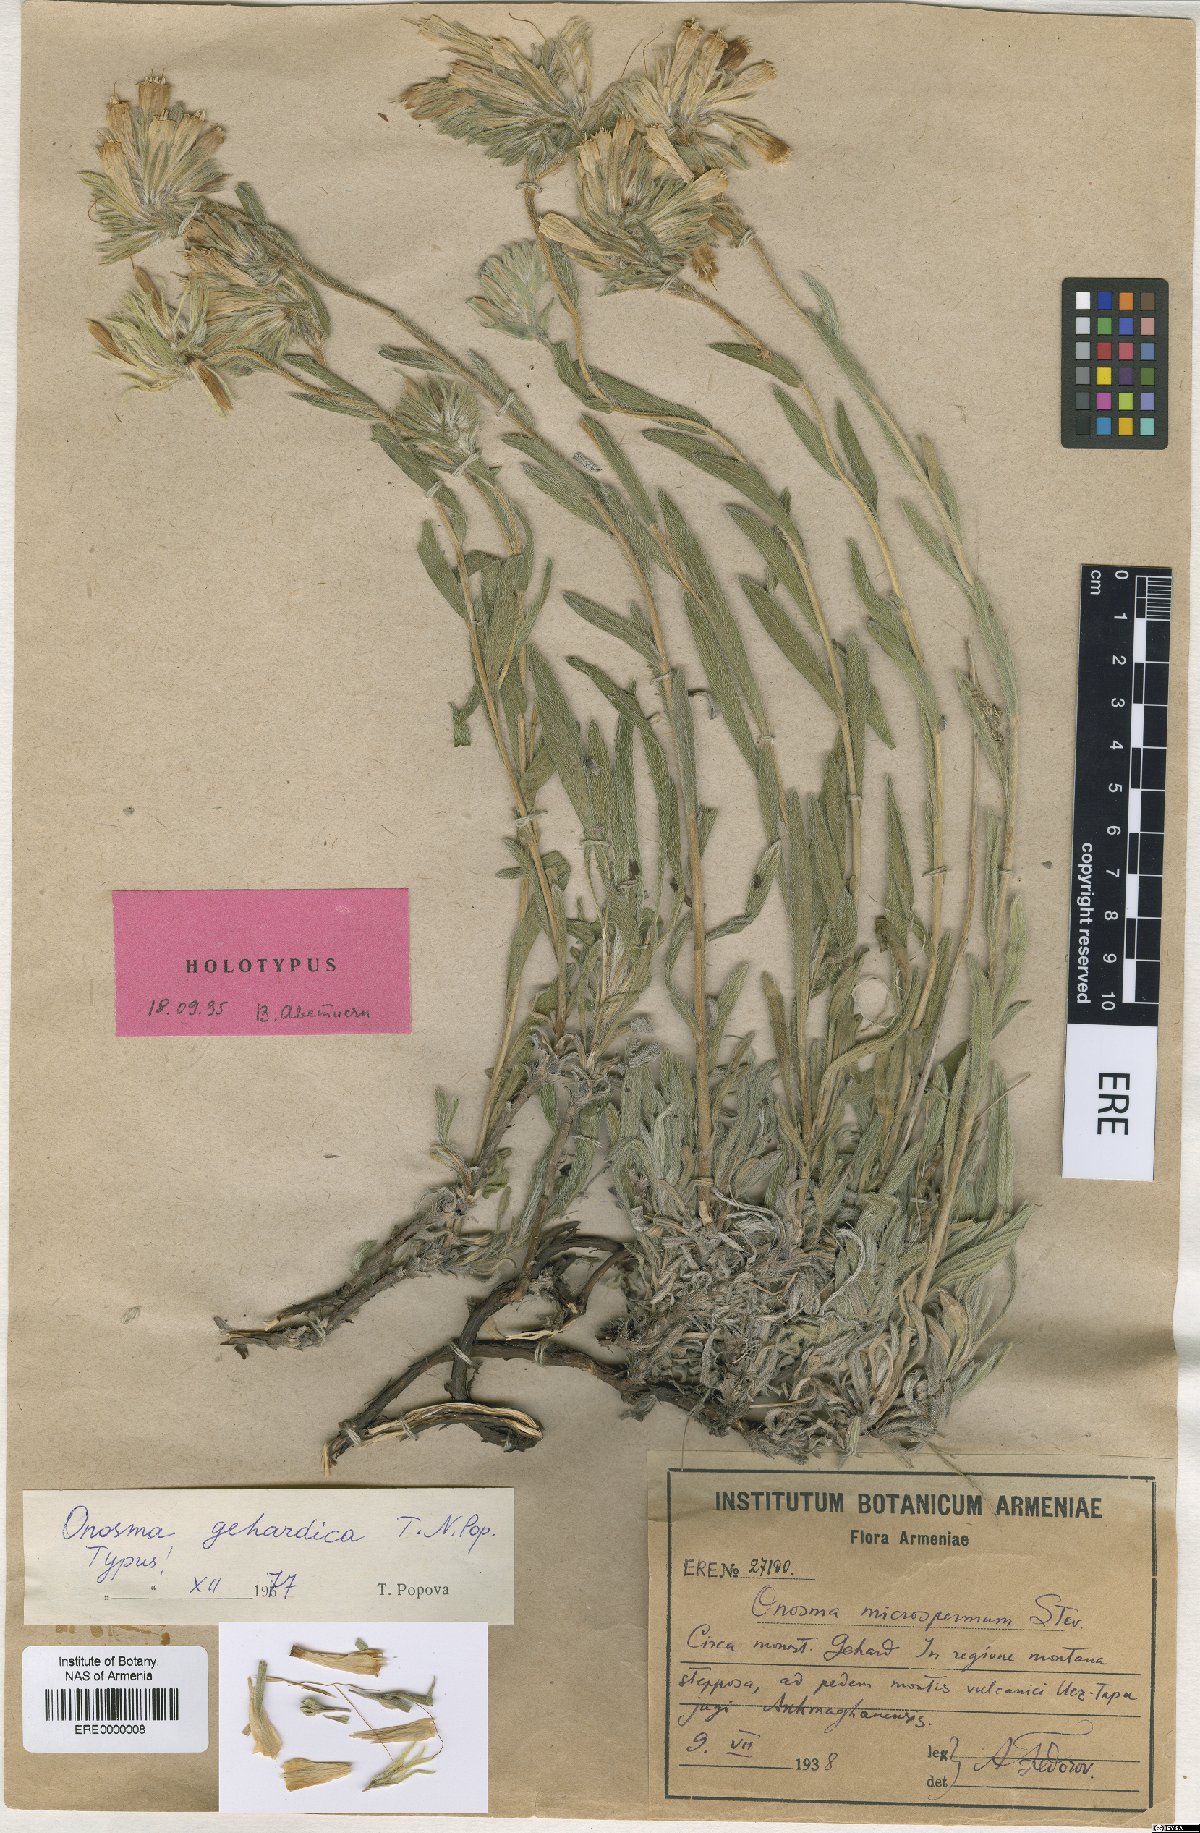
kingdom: Plantae
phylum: Tracheophyta
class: Magnoliopsida
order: Boraginales
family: Boraginaceae
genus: Onosma
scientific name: Onosma gehardica
